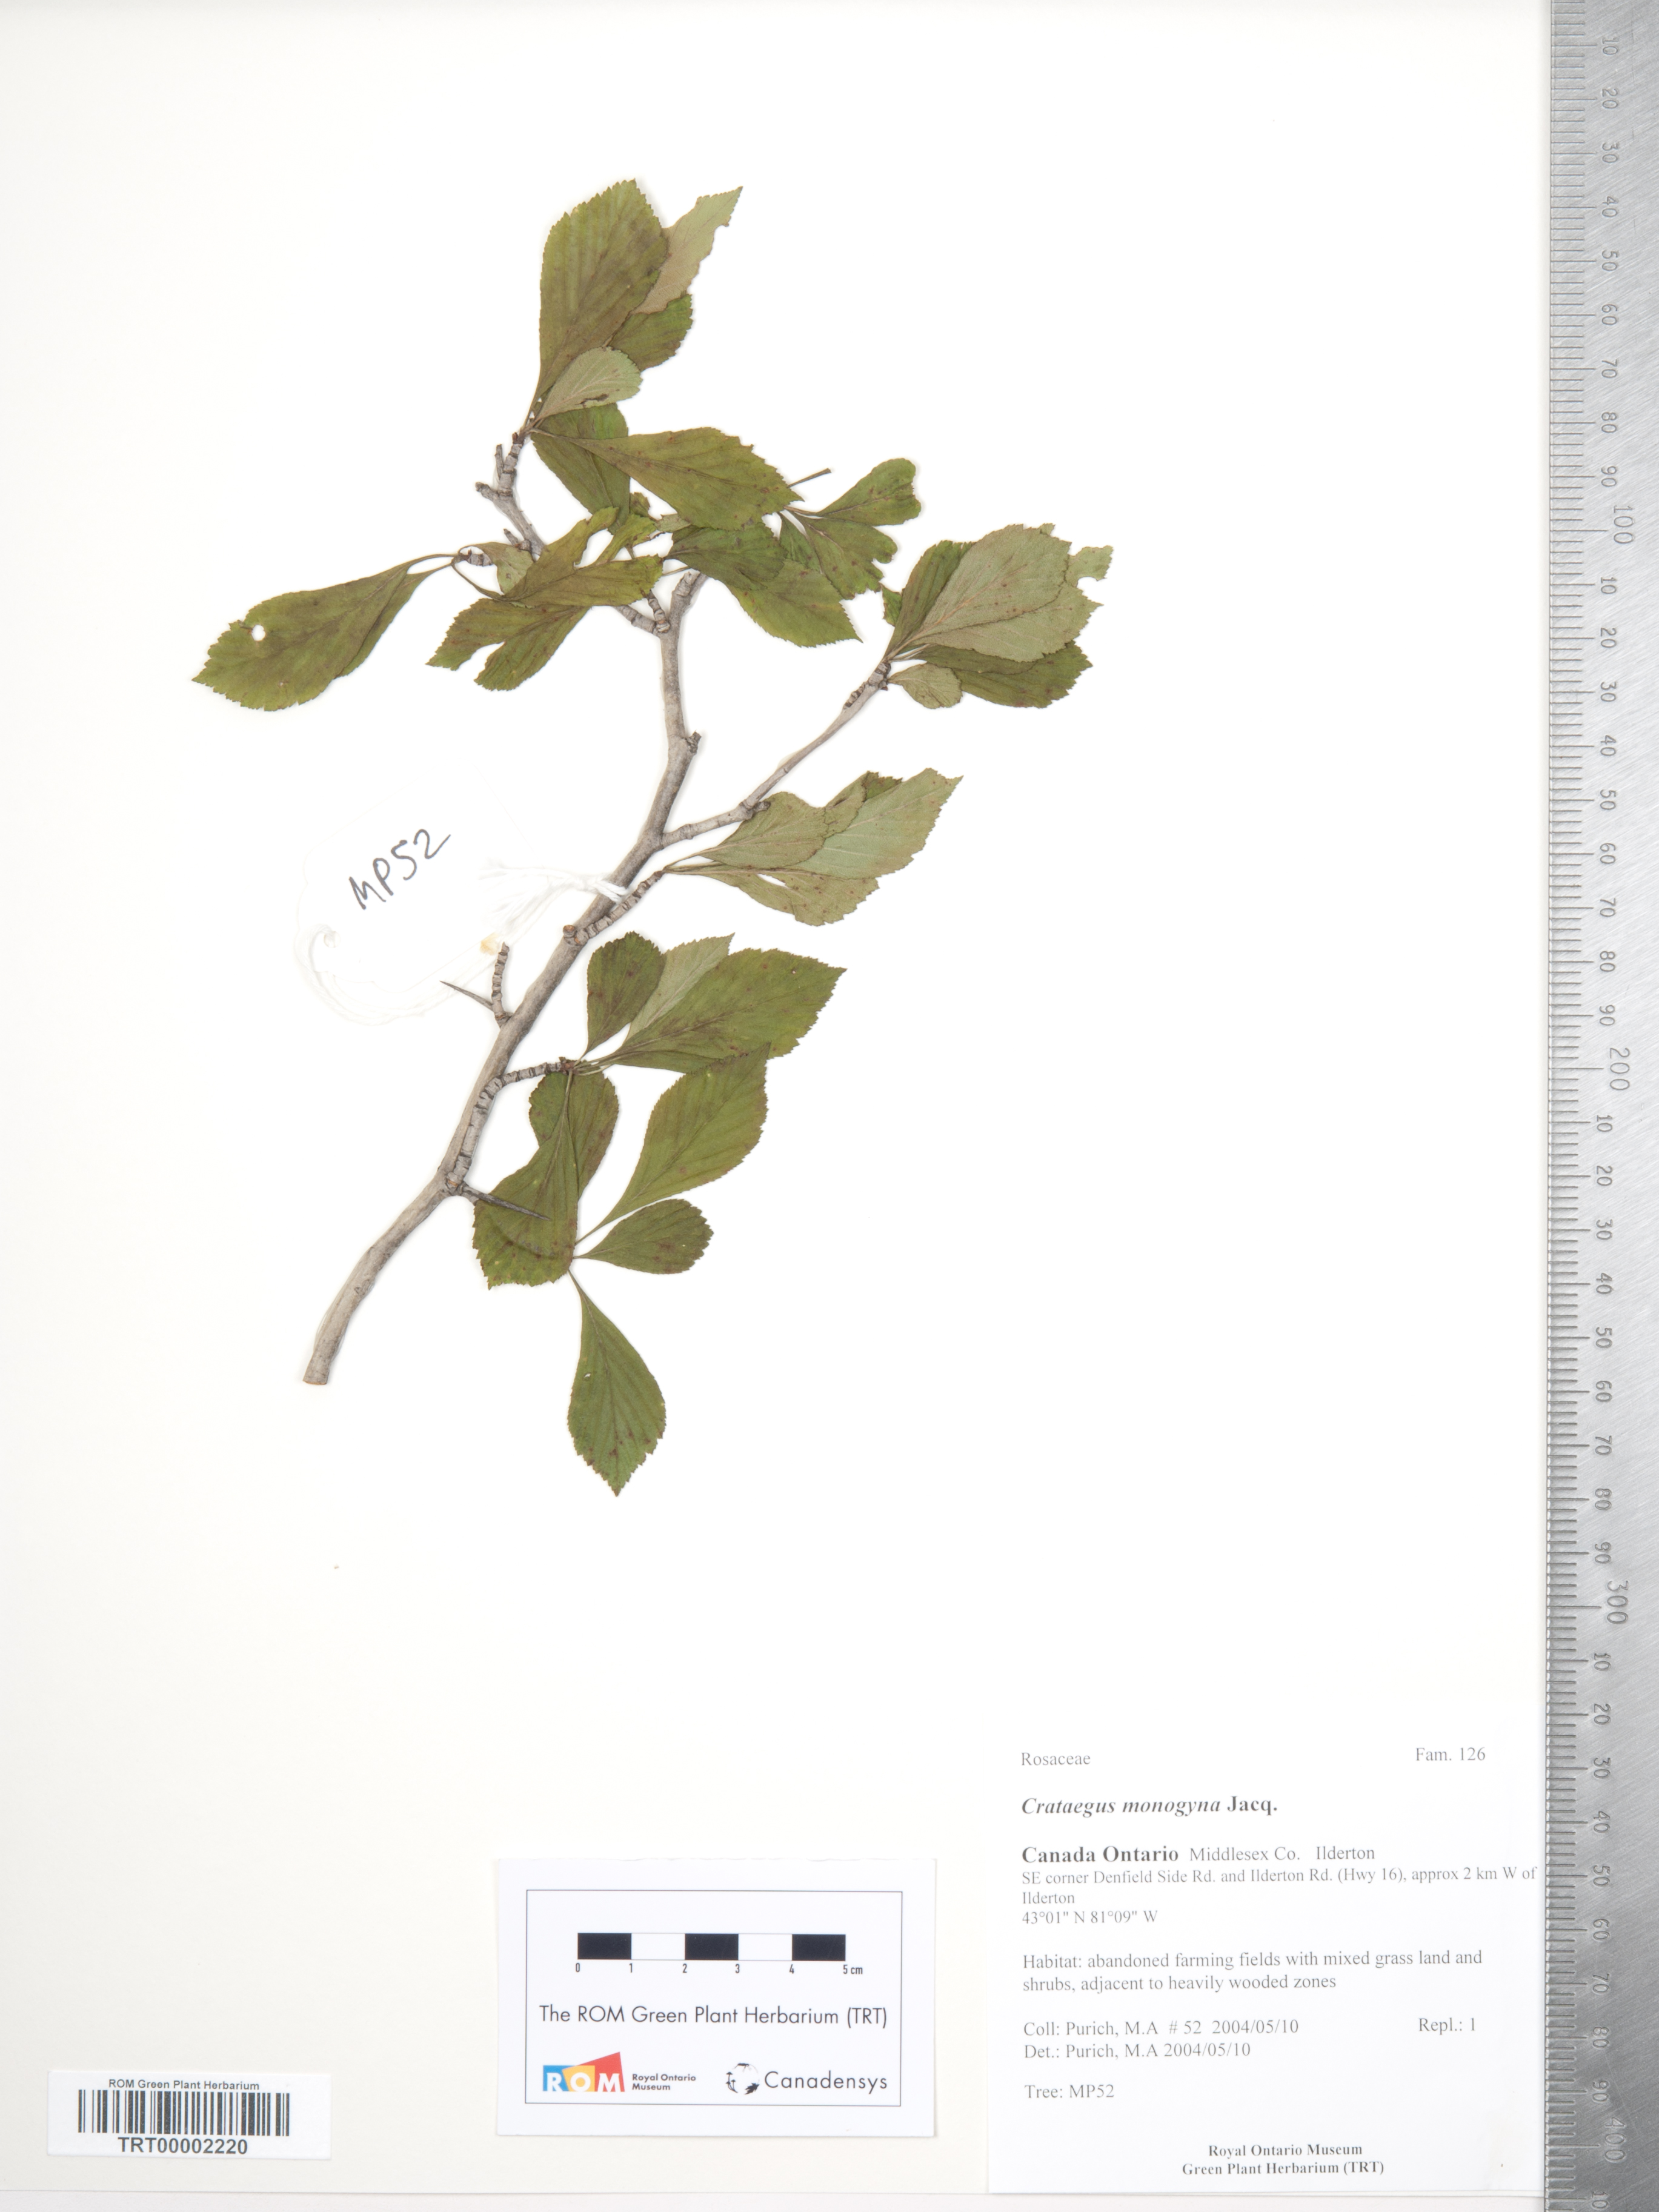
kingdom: Plantae
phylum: Tracheophyta
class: Magnoliopsida
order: Rosales
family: Rosaceae
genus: Crataegus
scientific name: Crataegus punctata
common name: Dotted hawthorn
